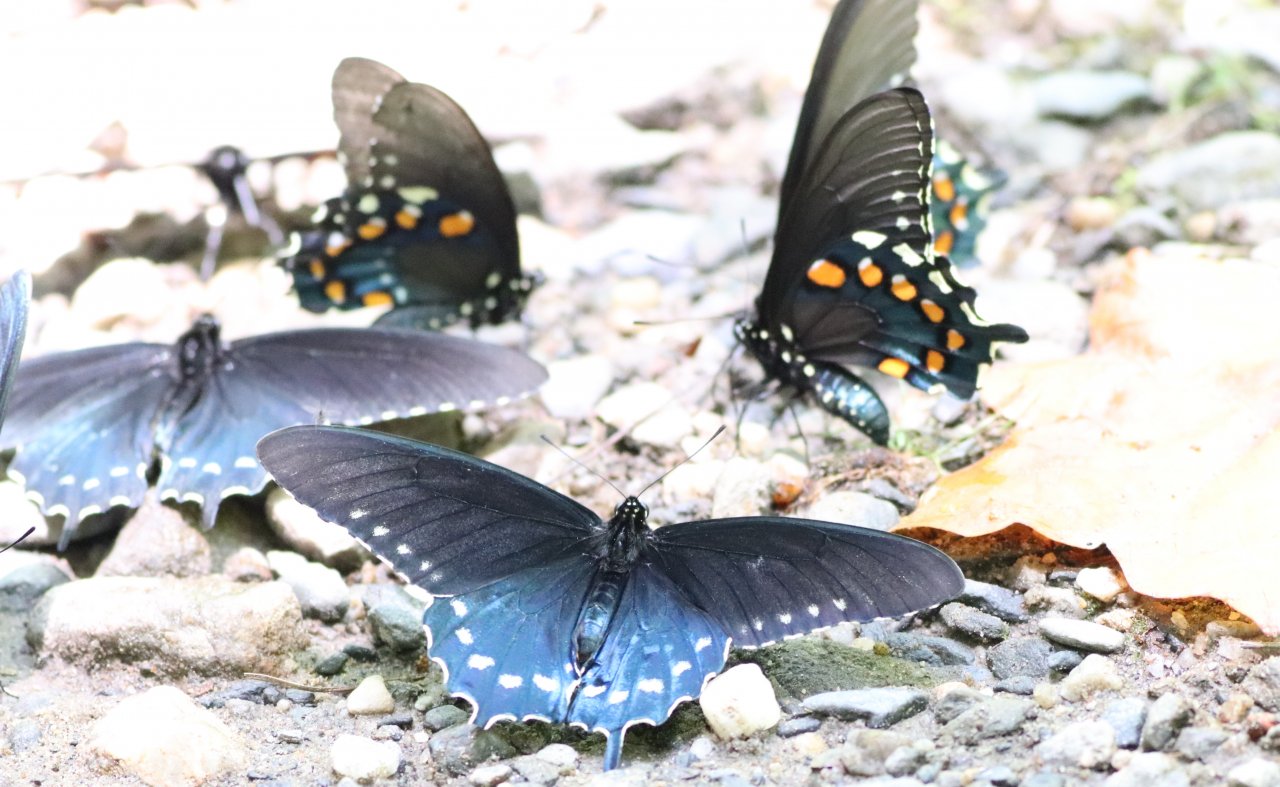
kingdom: Animalia
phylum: Arthropoda
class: Insecta
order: Lepidoptera
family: Papilionidae
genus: Battus
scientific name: Battus philenor
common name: Pipevine Swallowtail
